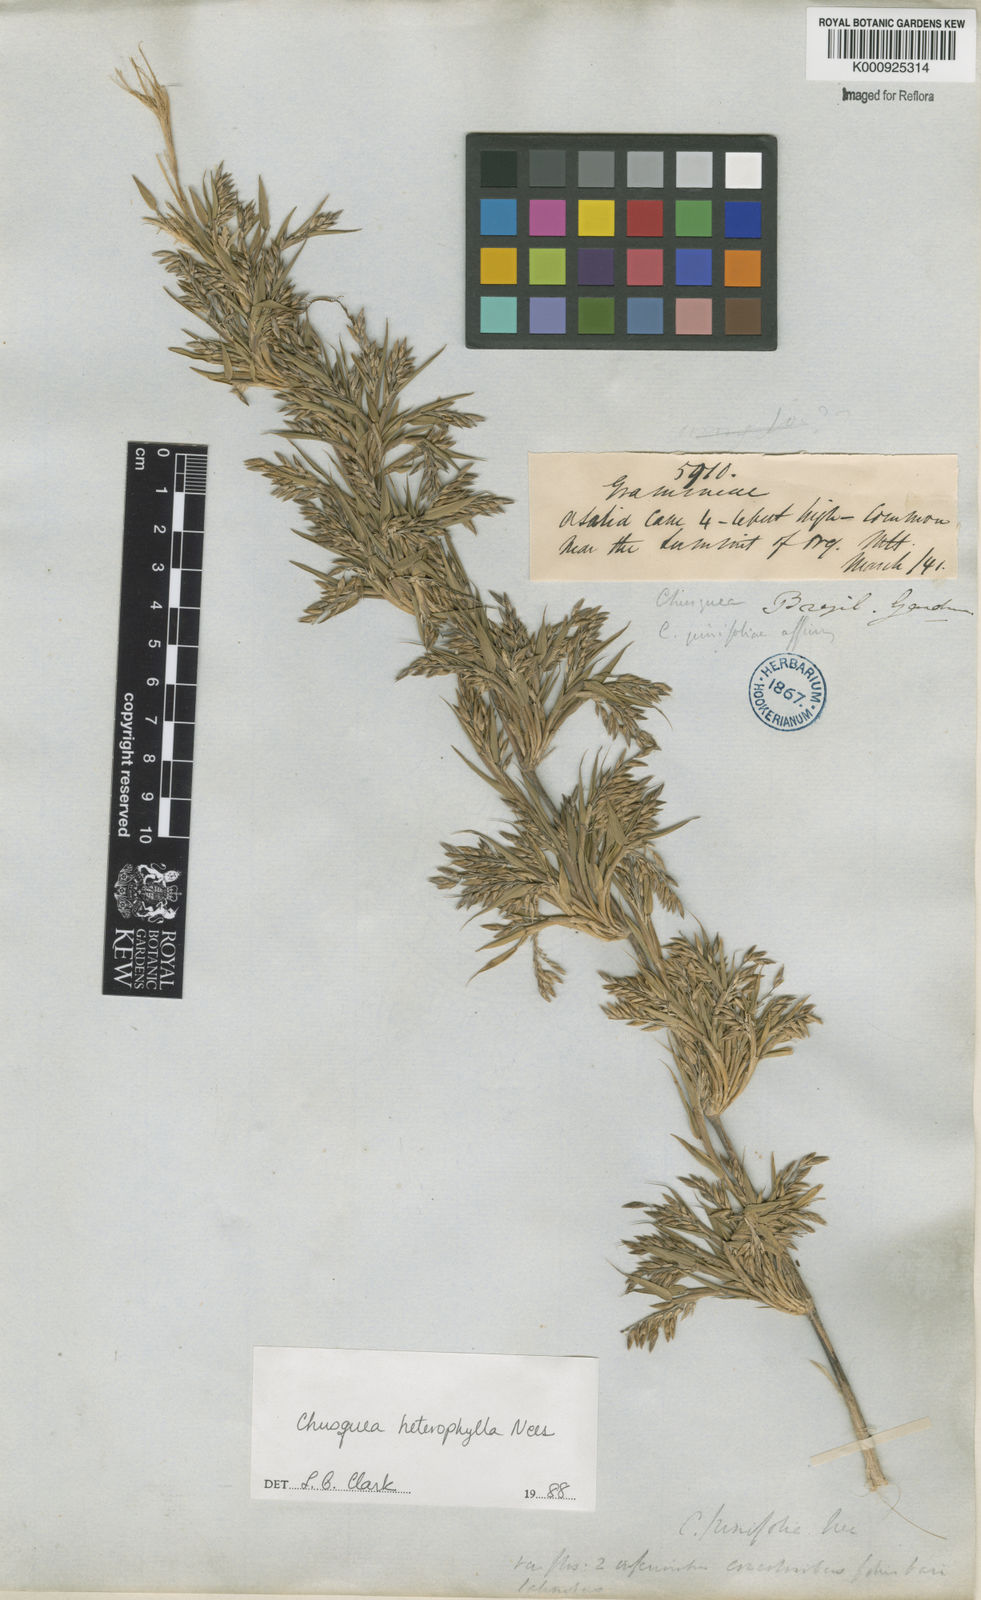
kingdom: Plantae
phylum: Tracheophyta
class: Liliopsida
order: Poales
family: Poaceae
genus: Chusquea
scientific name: Chusquea heterophylla
